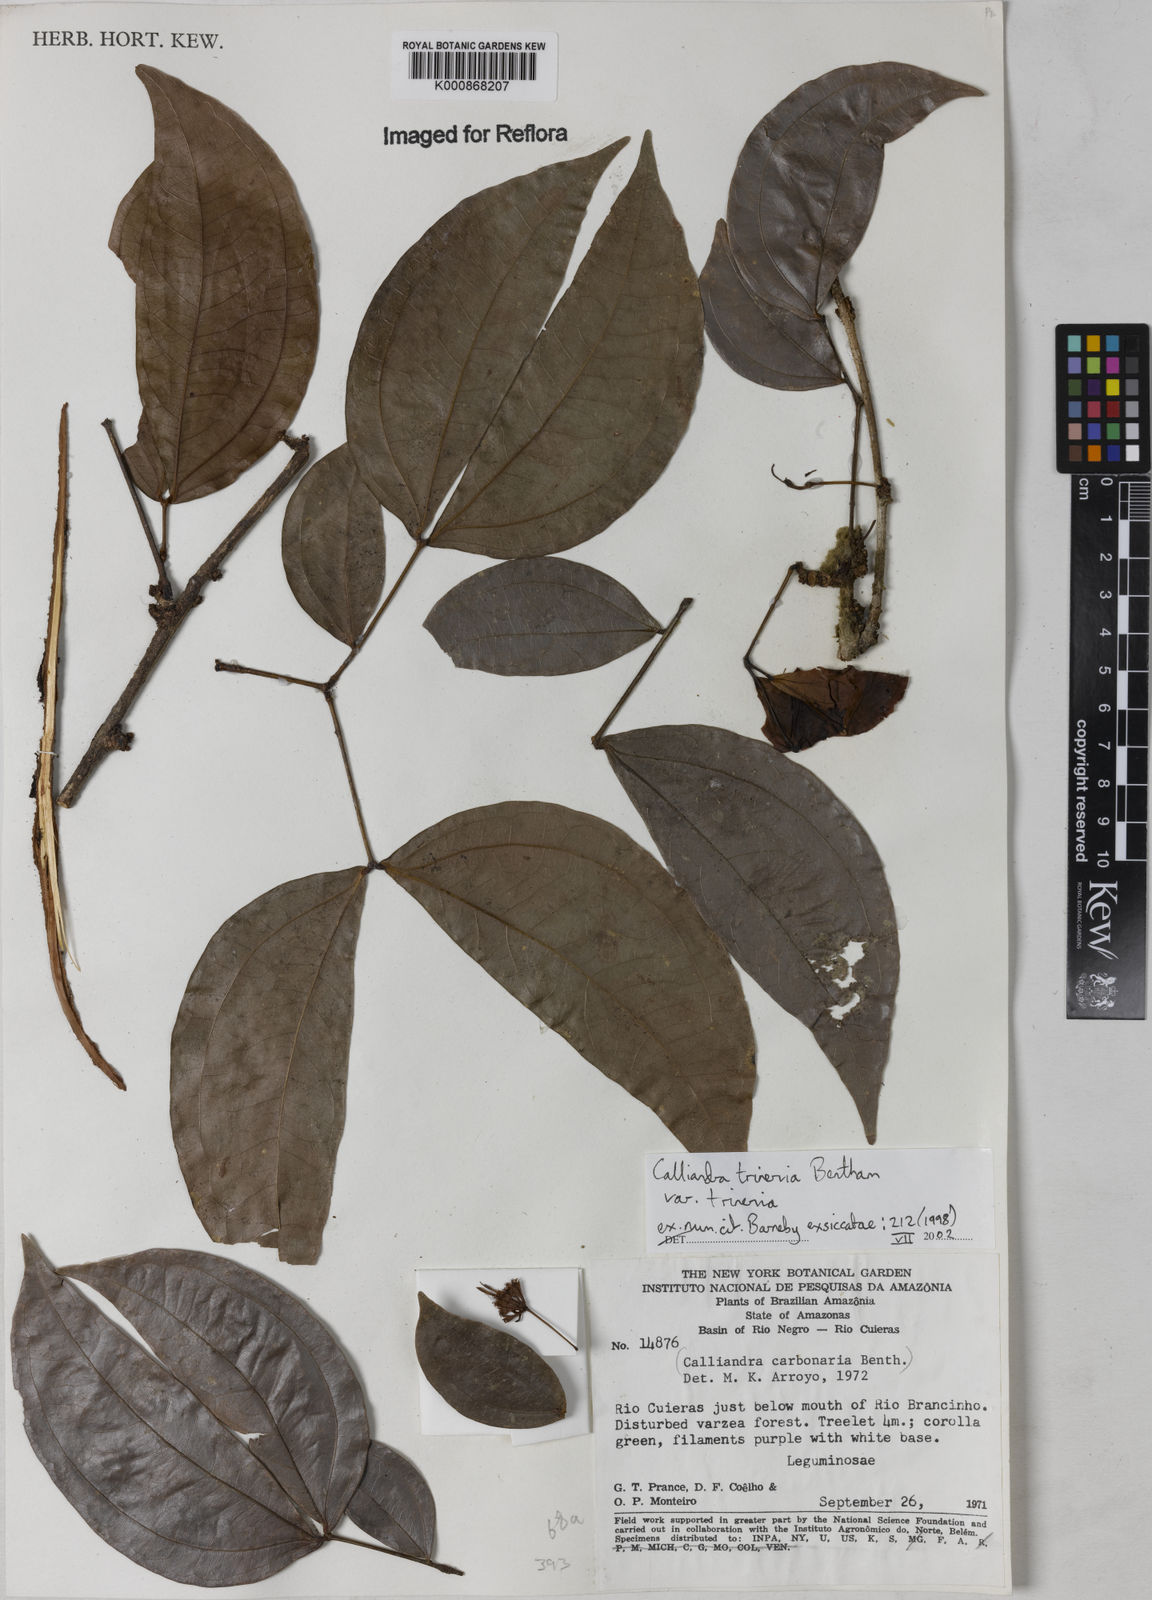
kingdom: Plantae
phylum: Tracheophyta
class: Magnoliopsida
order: Fabales
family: Fabaceae
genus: Calliandra
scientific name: Calliandra trinervia
